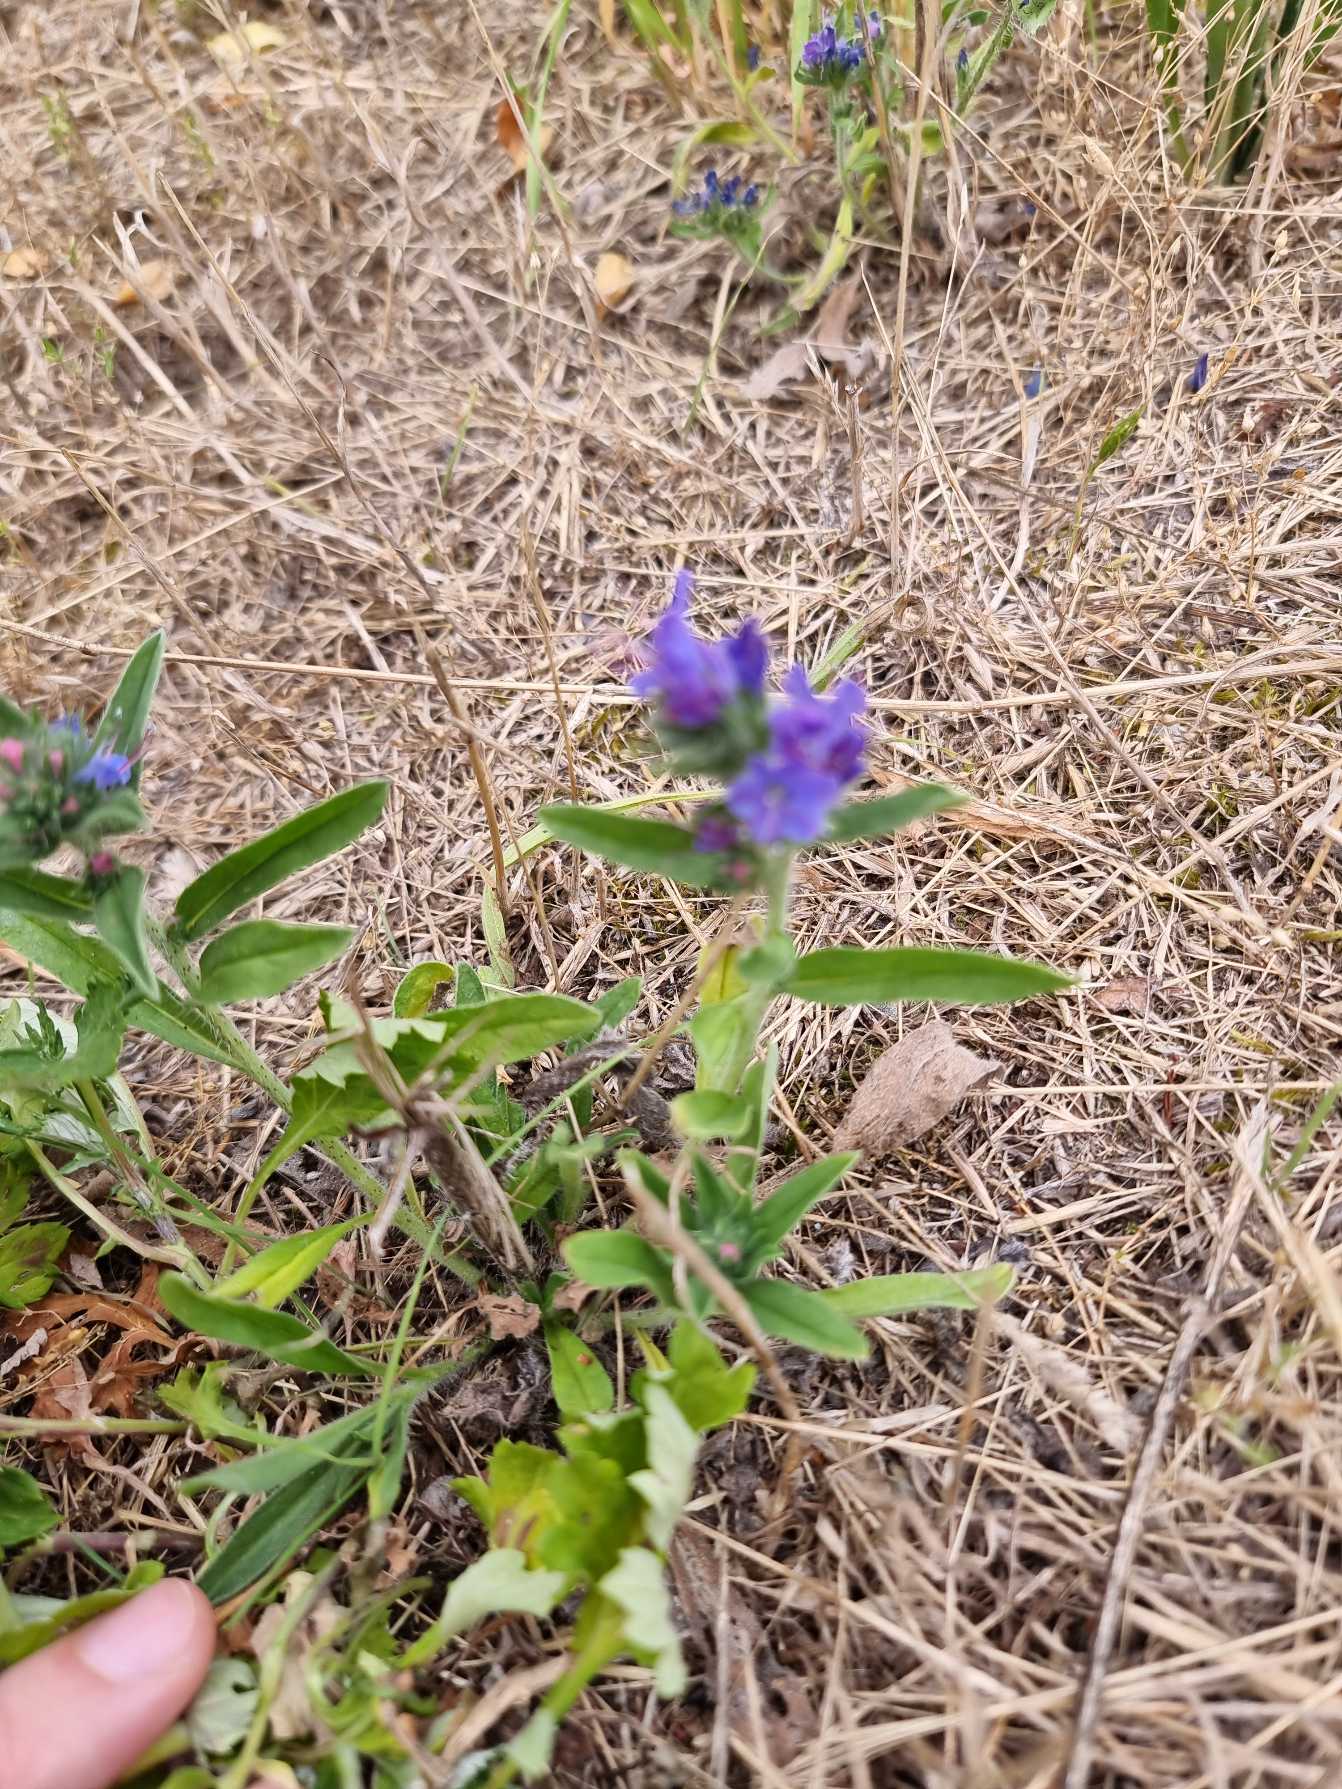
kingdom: Plantae
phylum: Tracheophyta
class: Magnoliopsida
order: Boraginales
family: Boraginaceae
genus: Echium
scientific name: Echium
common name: Slangehovedslægten
